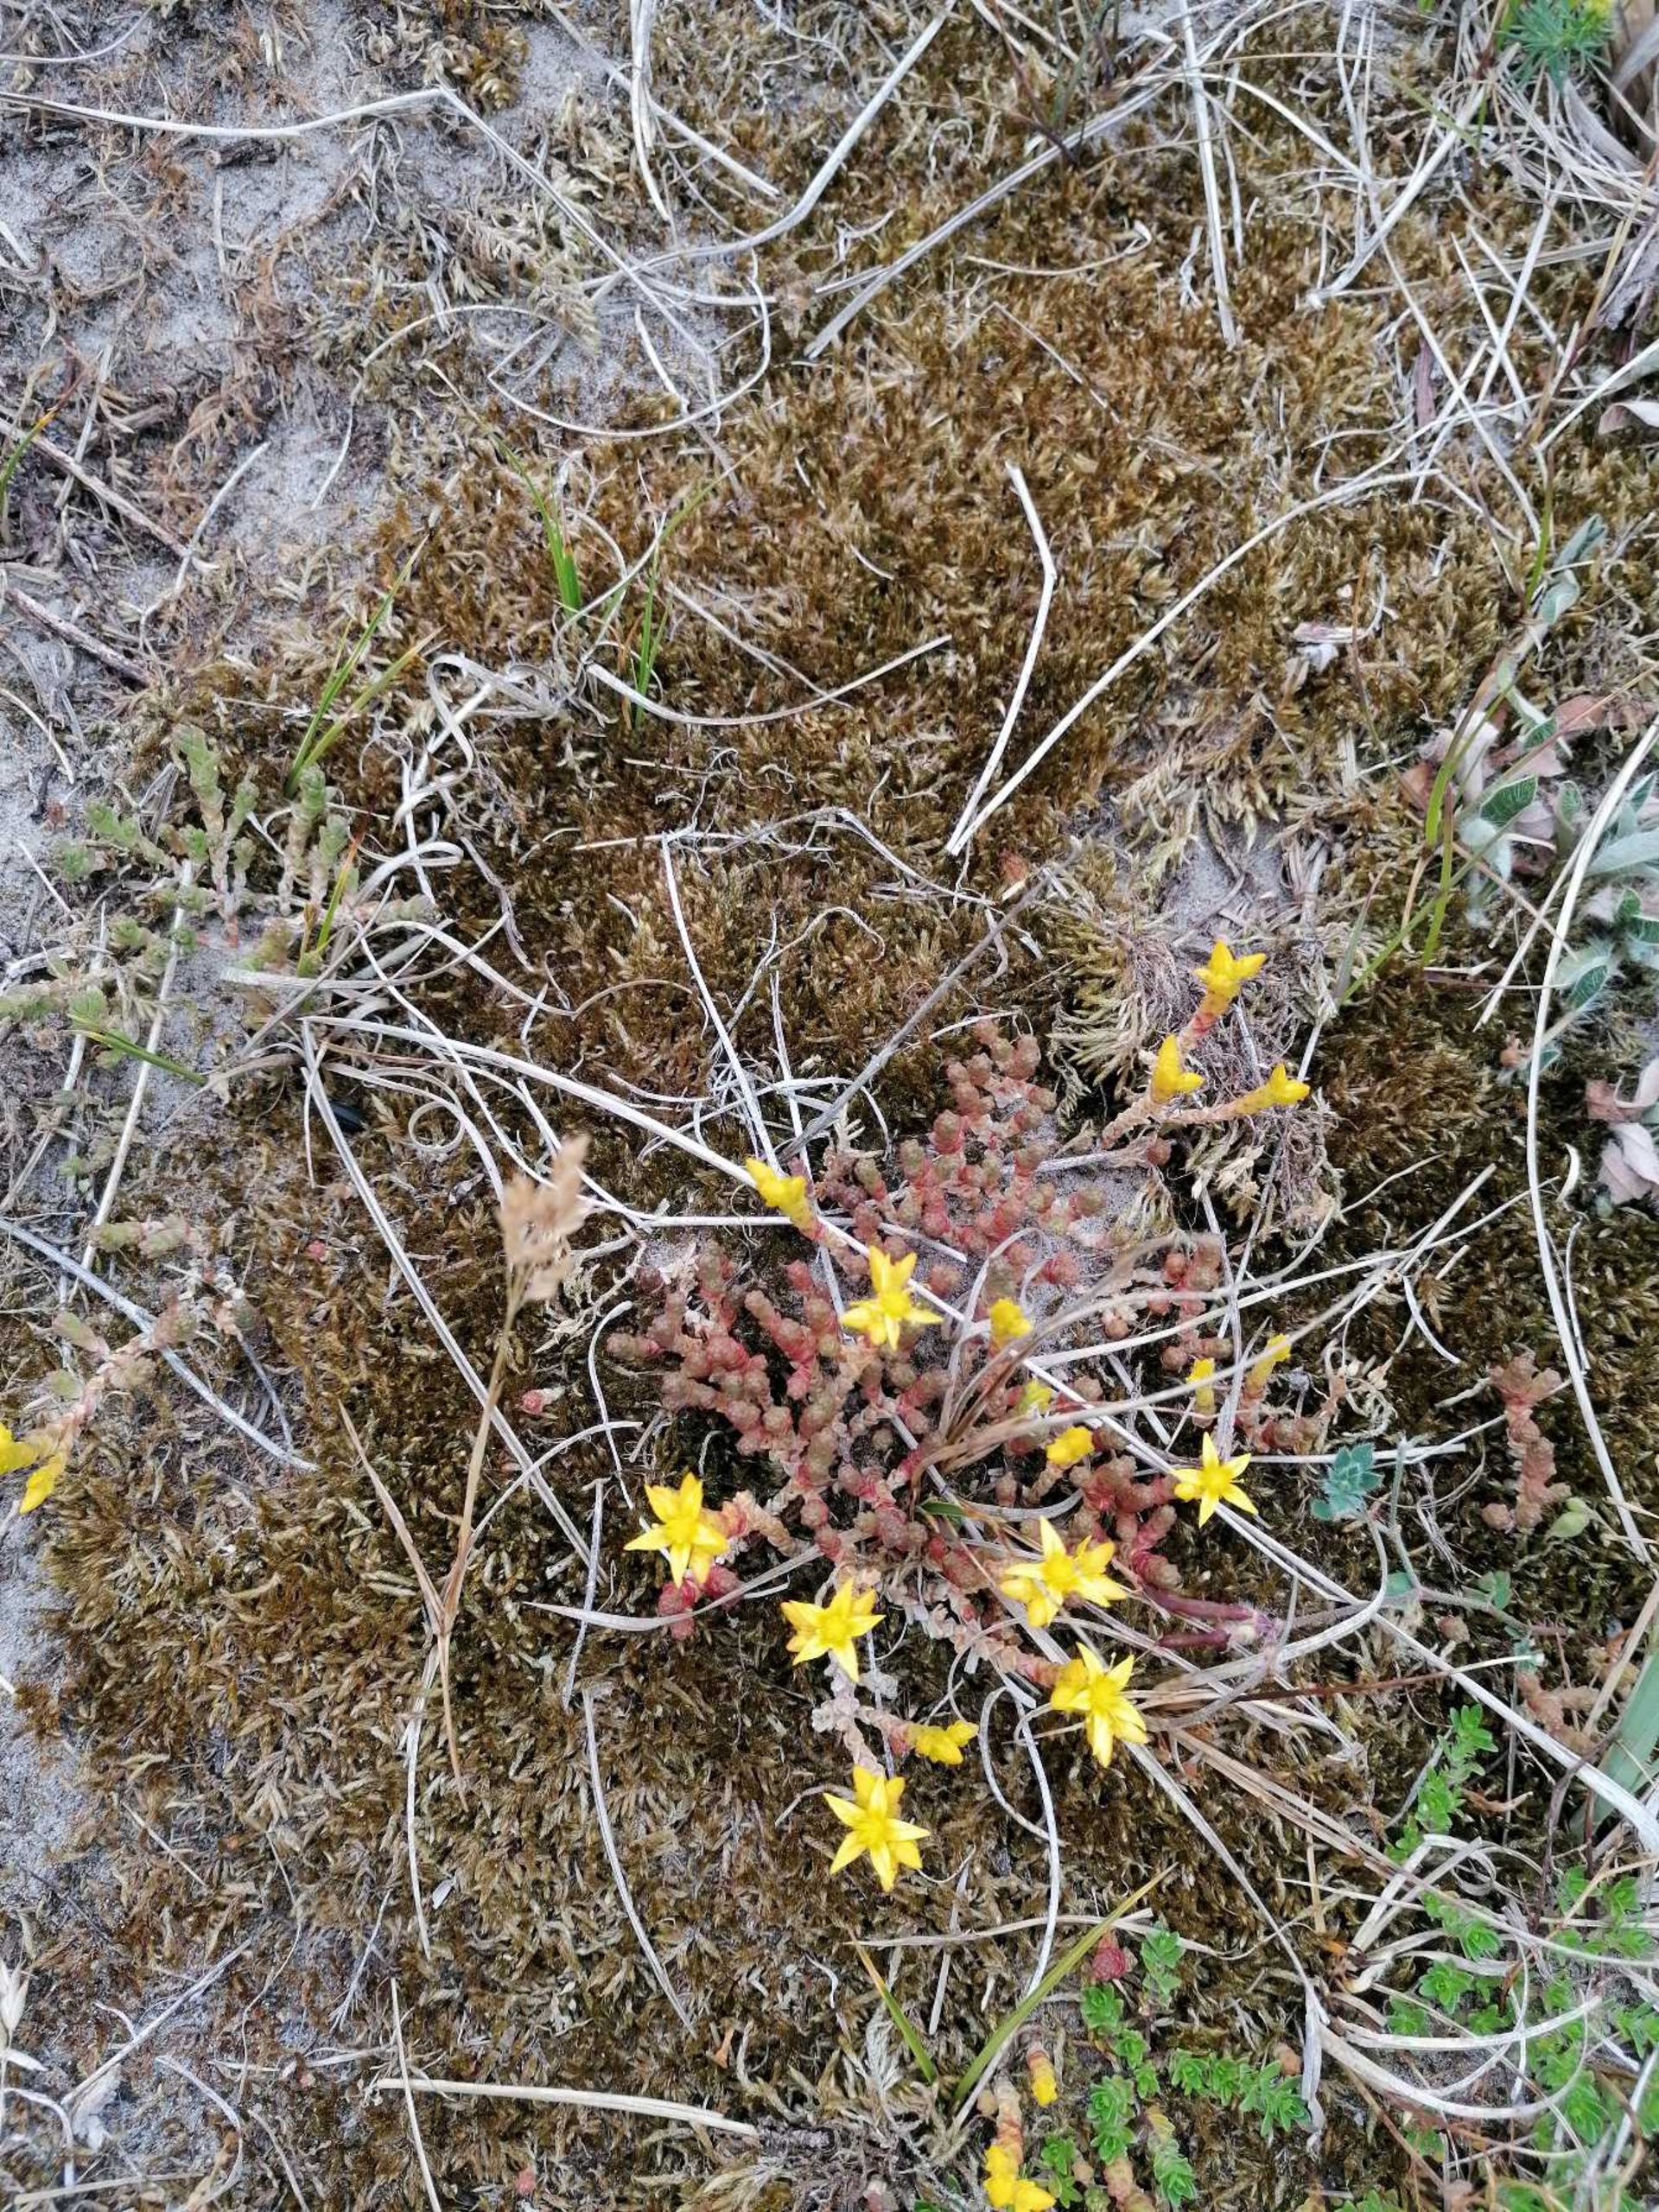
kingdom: Plantae
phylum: Tracheophyta
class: Magnoliopsida
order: Saxifragales
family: Crassulaceae
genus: Sedum
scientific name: Sedum acre
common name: Bidende stenurt
